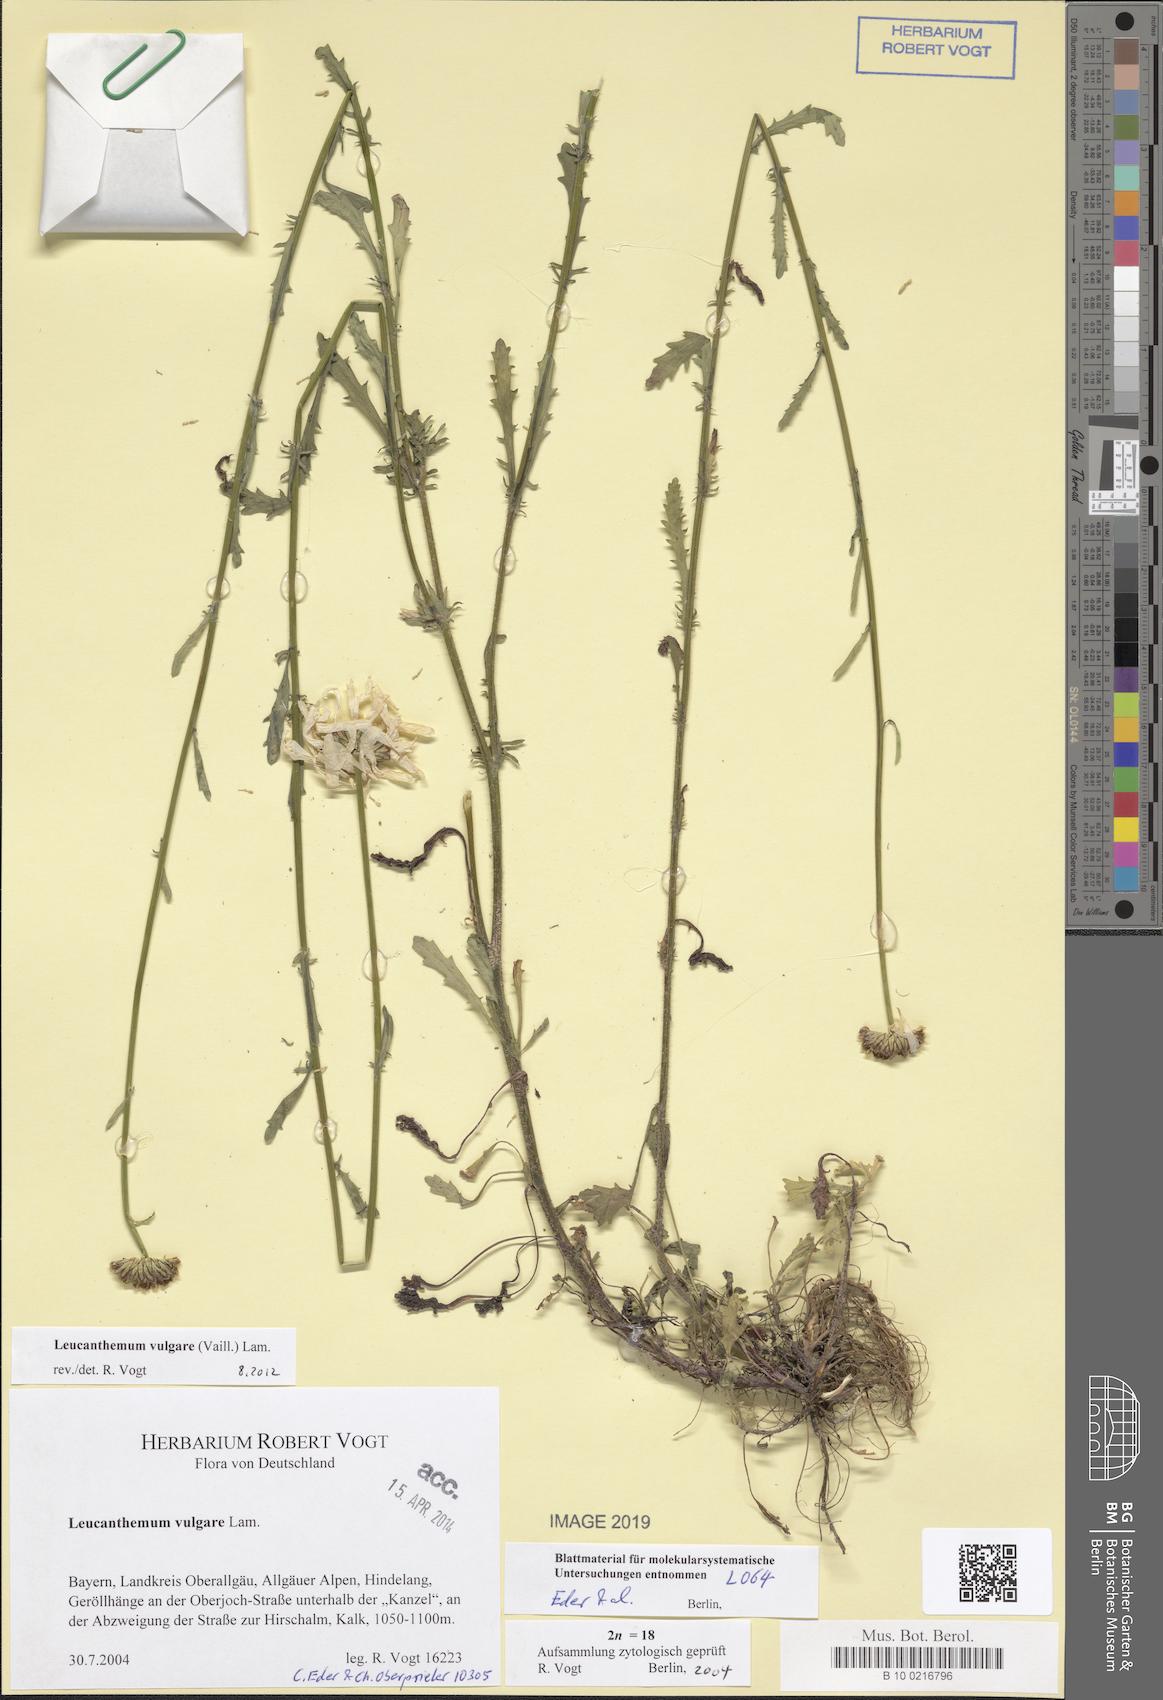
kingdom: Plantae
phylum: Tracheophyta
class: Magnoliopsida
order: Asterales
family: Asteraceae
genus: Leucanthemum
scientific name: Leucanthemum vulgare
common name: Oxeye daisy
